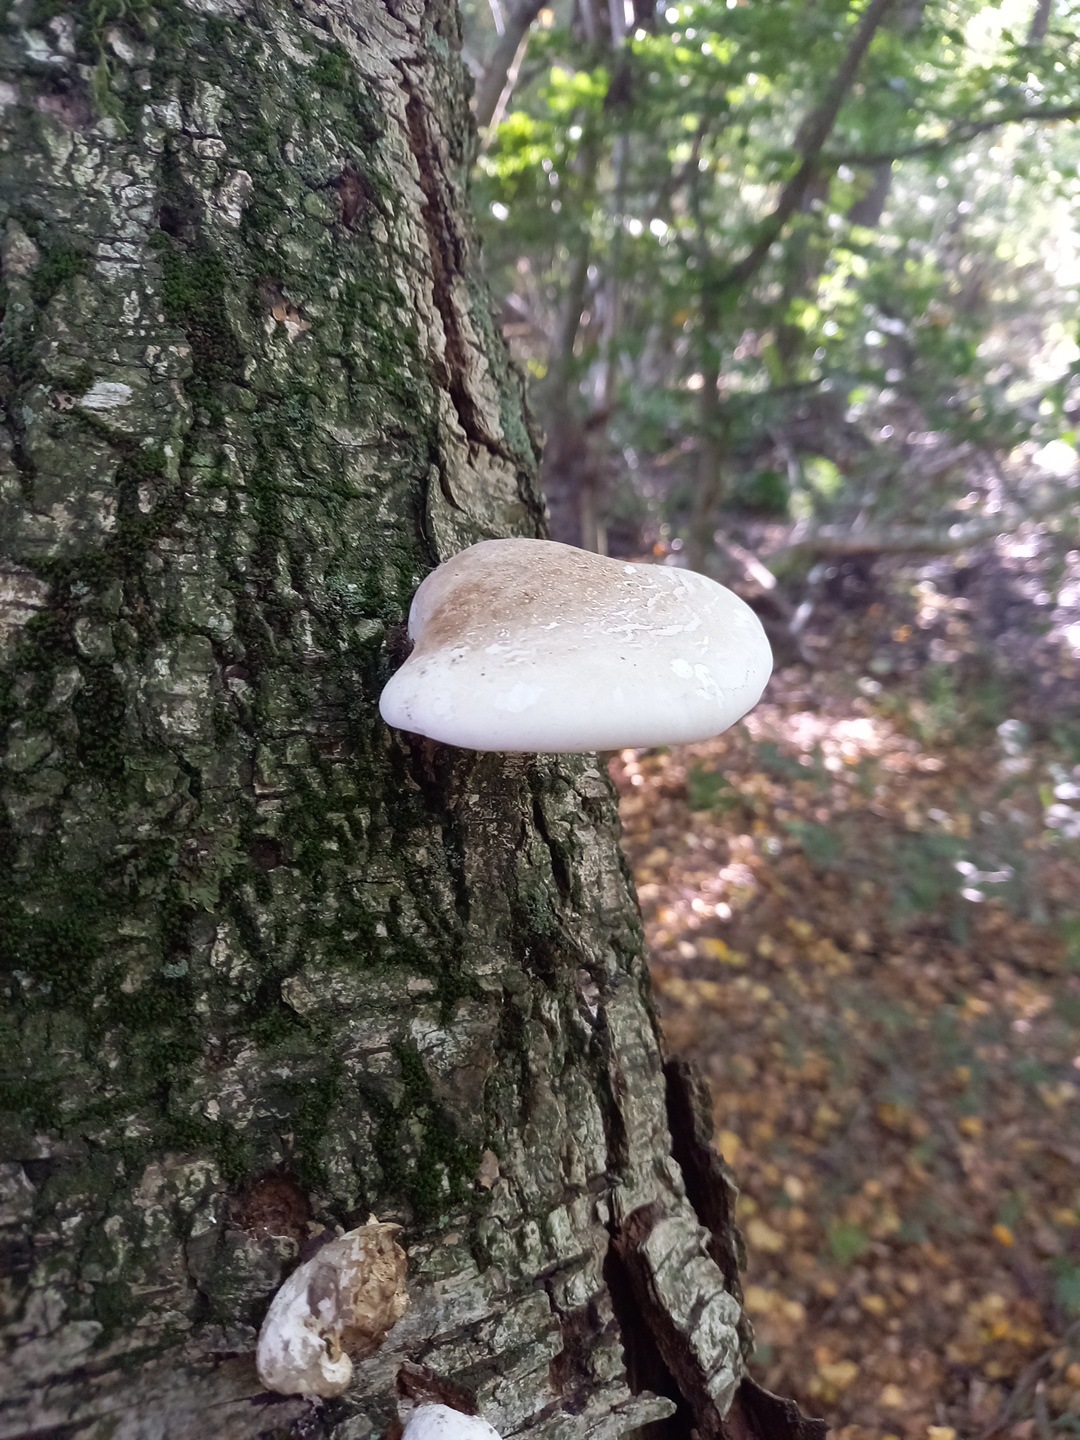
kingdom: Fungi
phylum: Basidiomycota
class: Agaricomycetes
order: Polyporales
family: Fomitopsidaceae
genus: Fomitopsis
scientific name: Fomitopsis betulina
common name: birkeporesvamp
